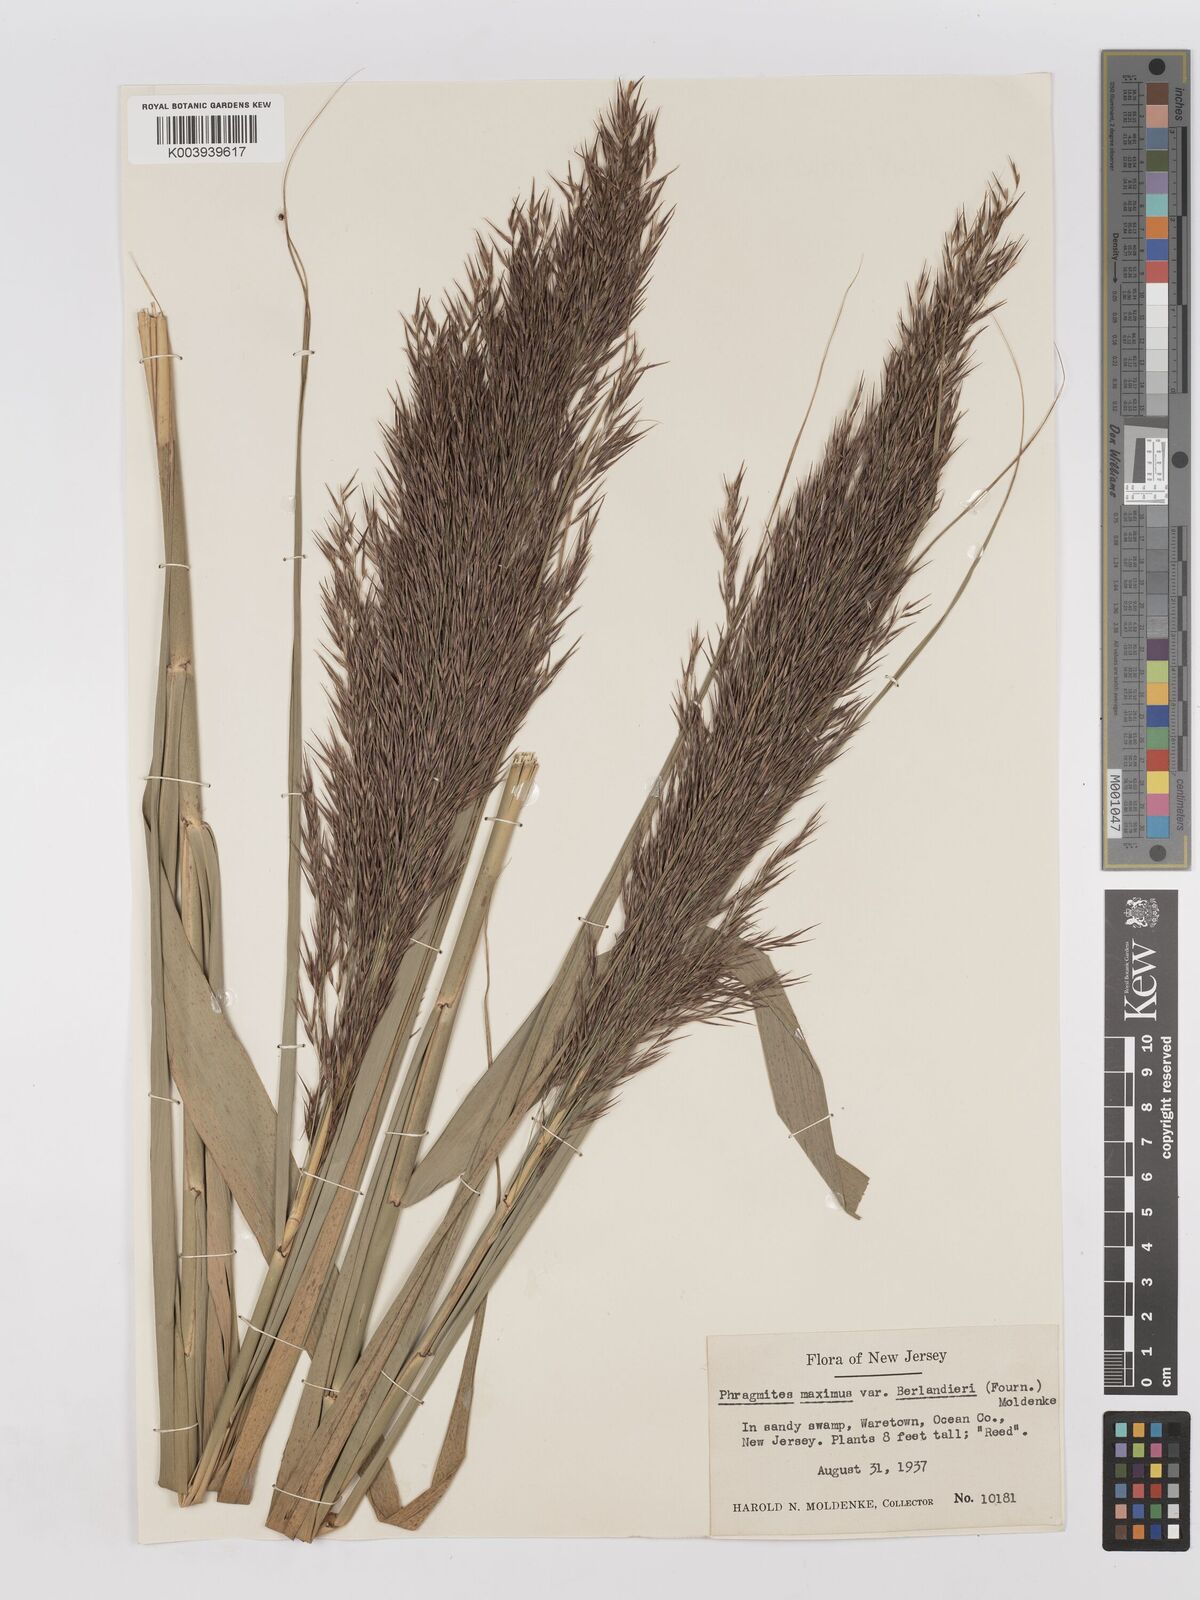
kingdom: Plantae
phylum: Tracheophyta
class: Liliopsida
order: Poales
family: Poaceae
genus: Phragmites
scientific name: Phragmites australis
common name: Common reed
